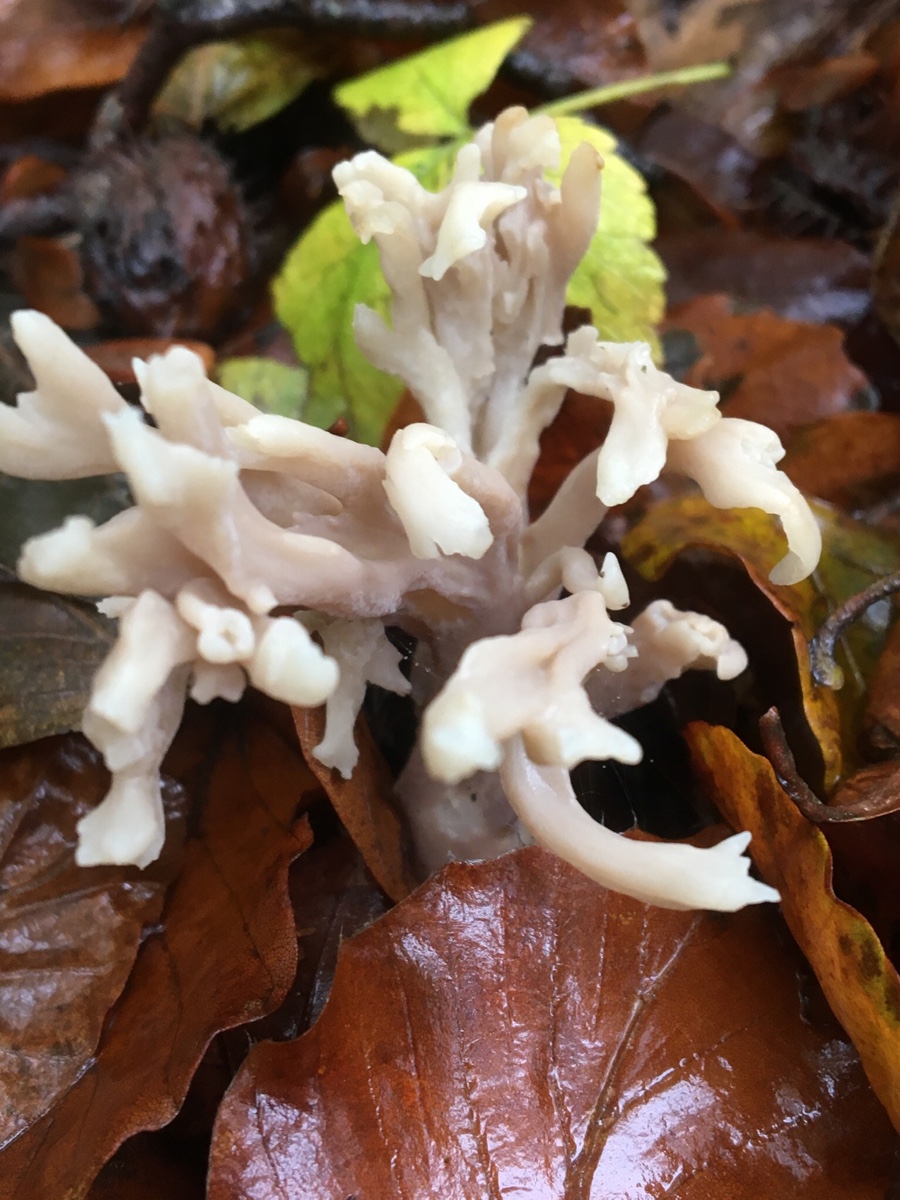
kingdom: Fungi
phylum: Basidiomycota
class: Agaricomycetes
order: Cantharellales
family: Hydnaceae
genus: Clavulina
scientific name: Clavulina
